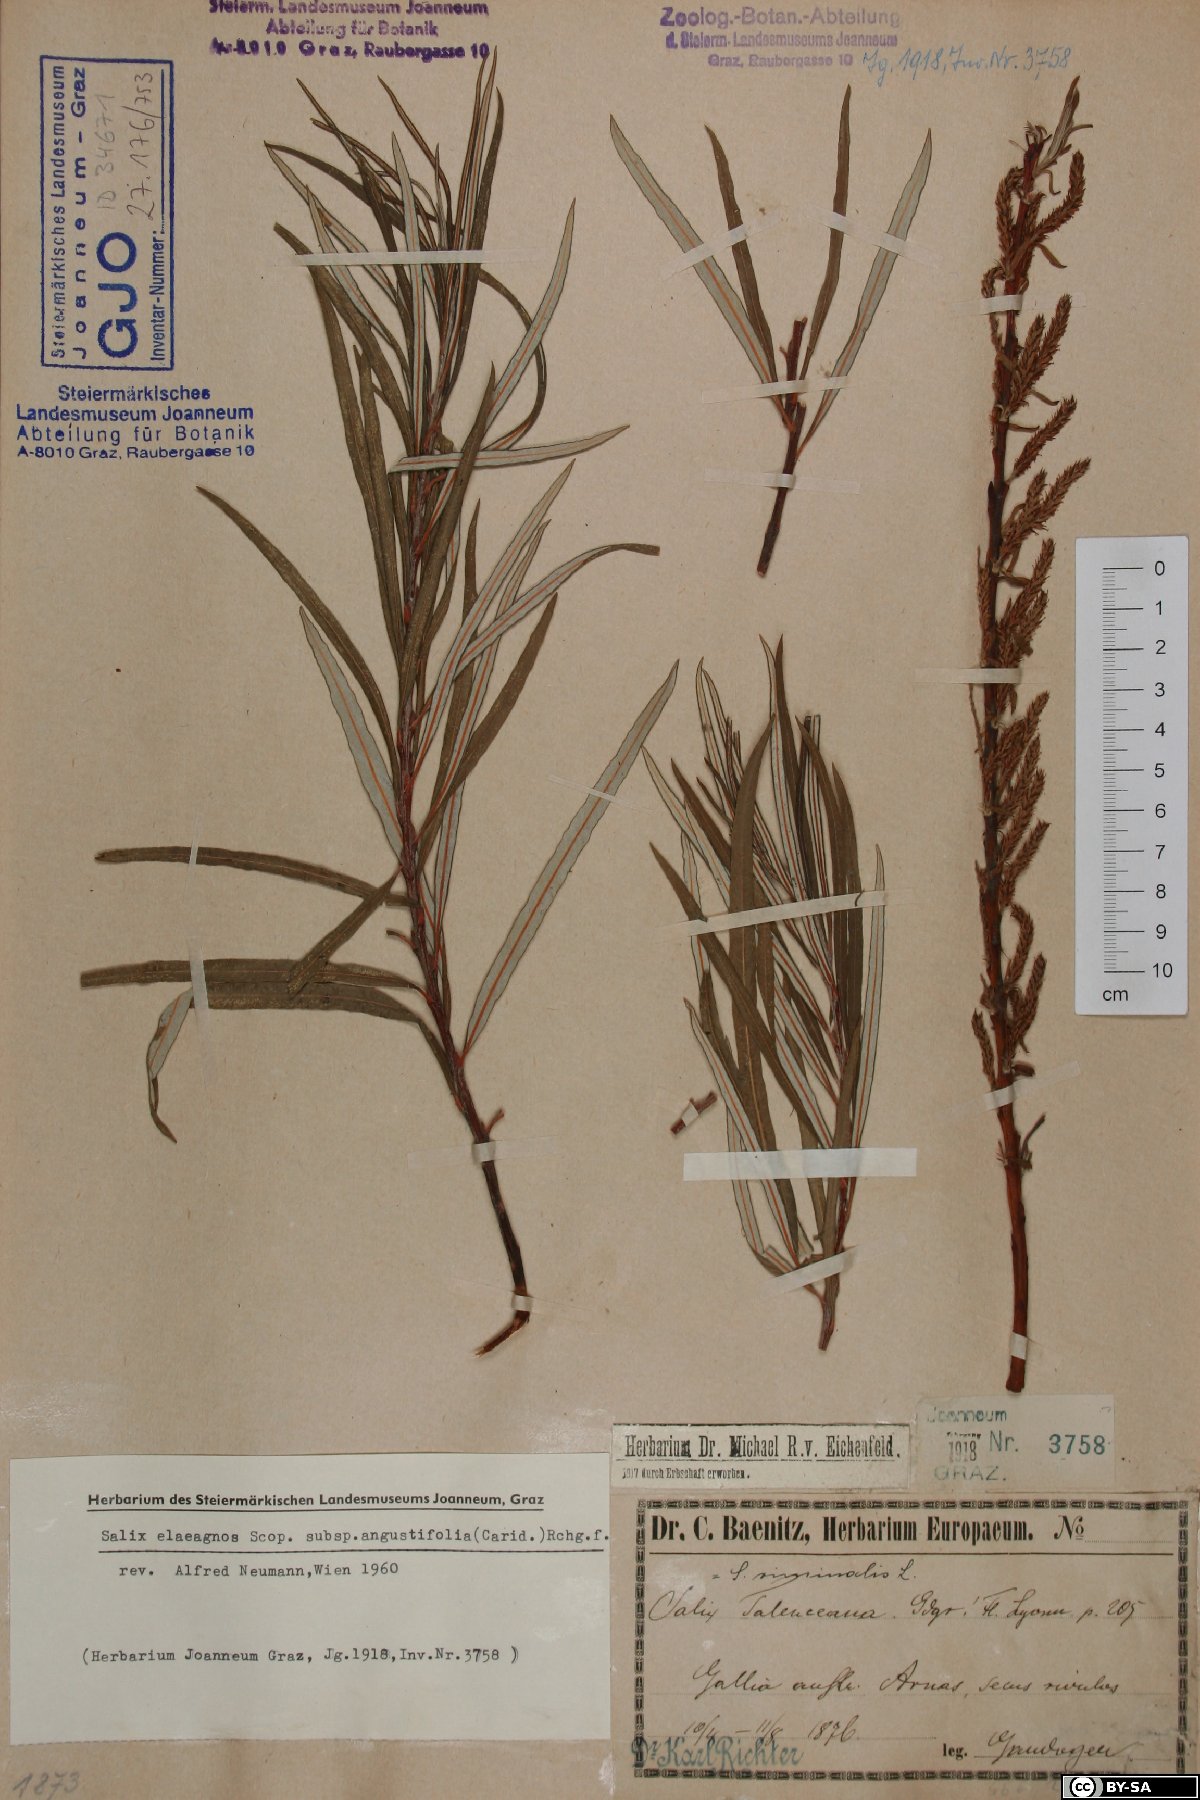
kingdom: Plantae
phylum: Tracheophyta
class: Magnoliopsida
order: Malpighiales
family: Salicaceae
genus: Salix
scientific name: Salix eleagnos
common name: Elaeagnus willow
